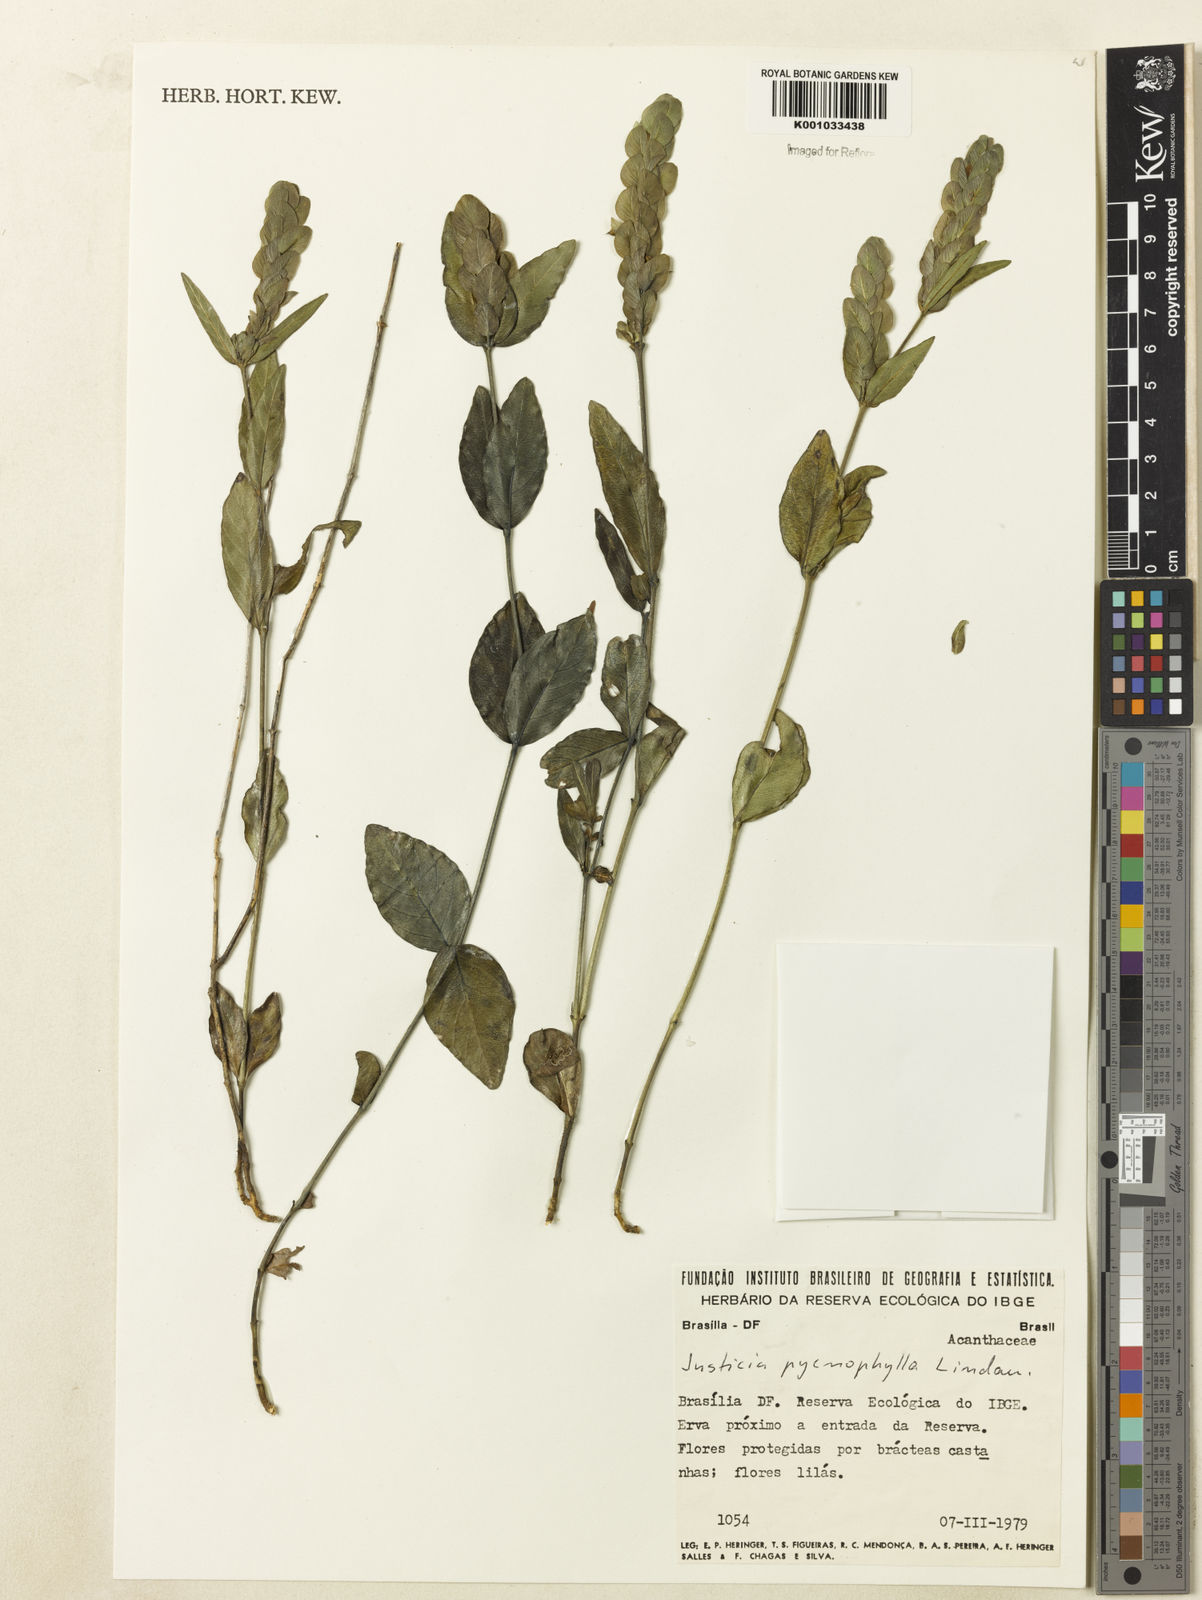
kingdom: Plantae
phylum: Tracheophyta
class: Magnoliopsida
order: Lamiales
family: Acanthaceae
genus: Justicia
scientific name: Justicia pycnophylla
